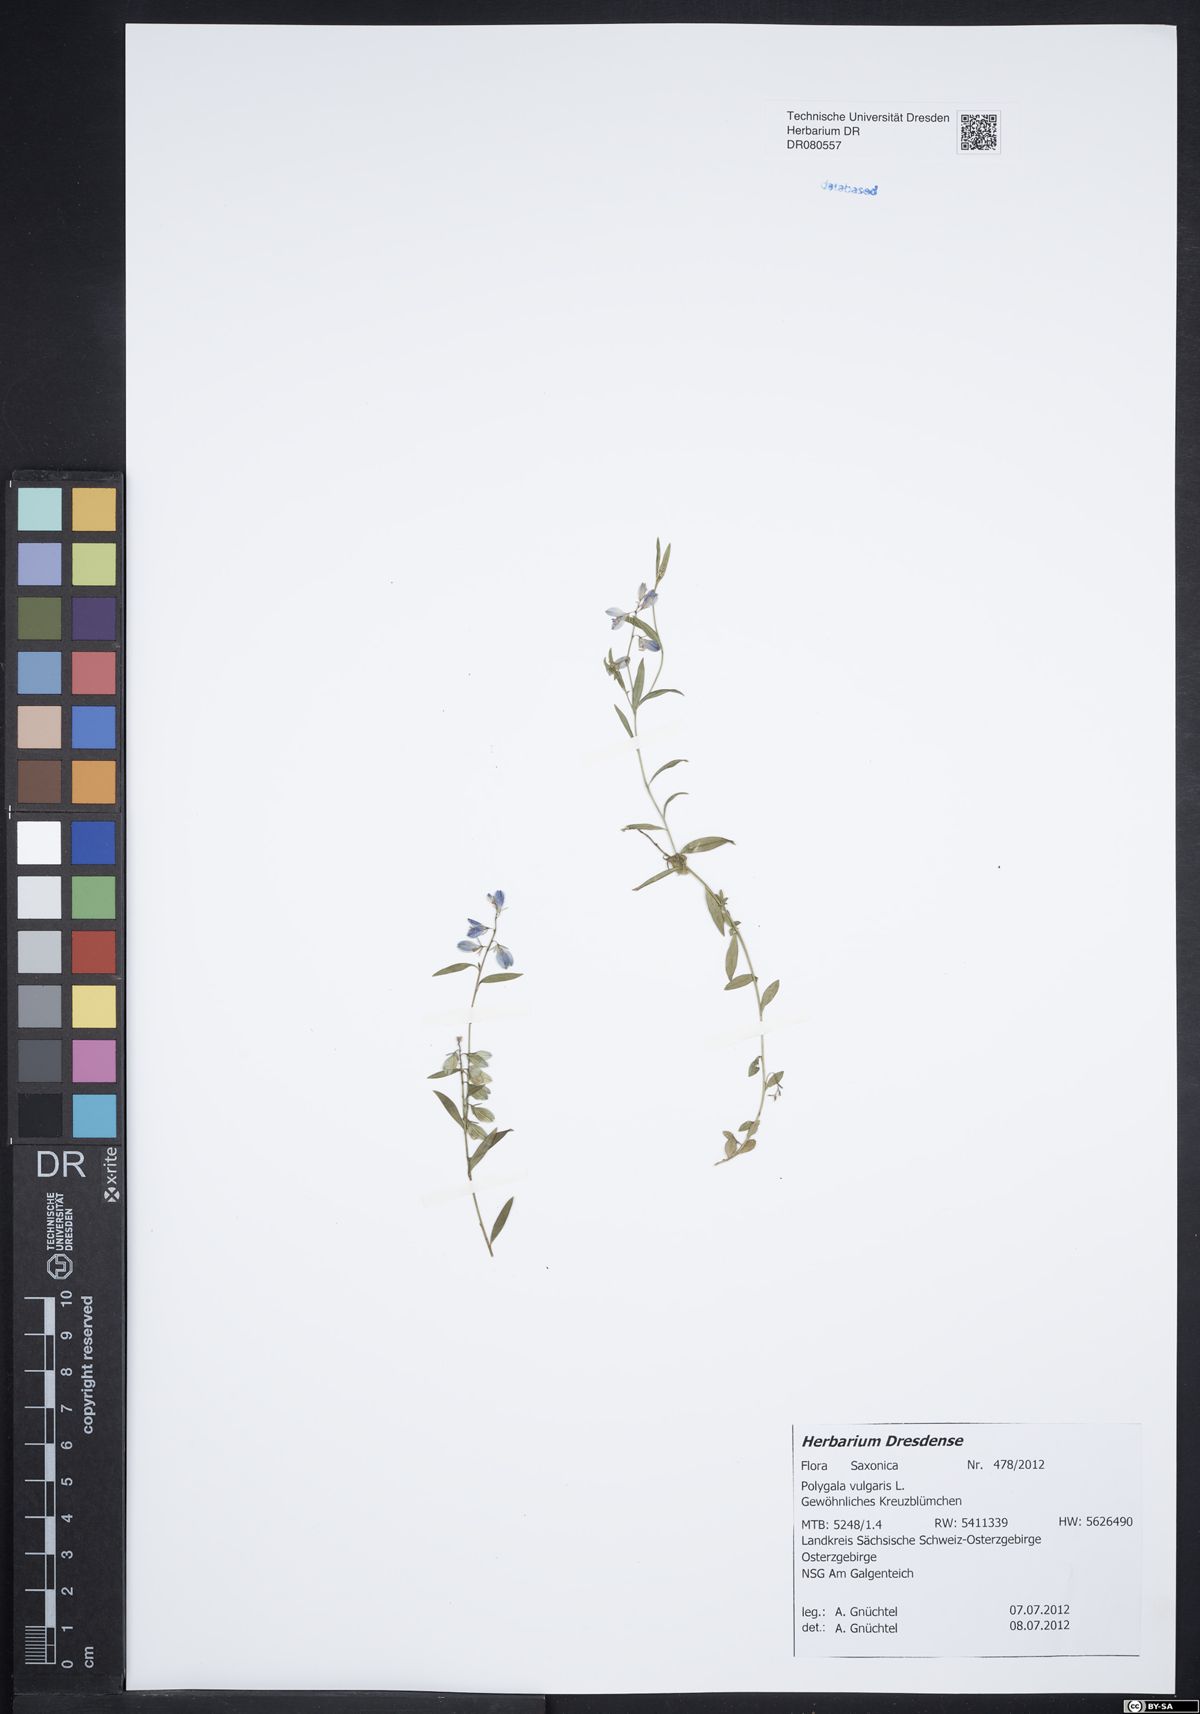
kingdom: Plantae
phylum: Tracheophyta
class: Magnoliopsida
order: Fabales
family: Polygalaceae
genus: Polygala
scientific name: Polygala vulgaris
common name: Common milkwort
